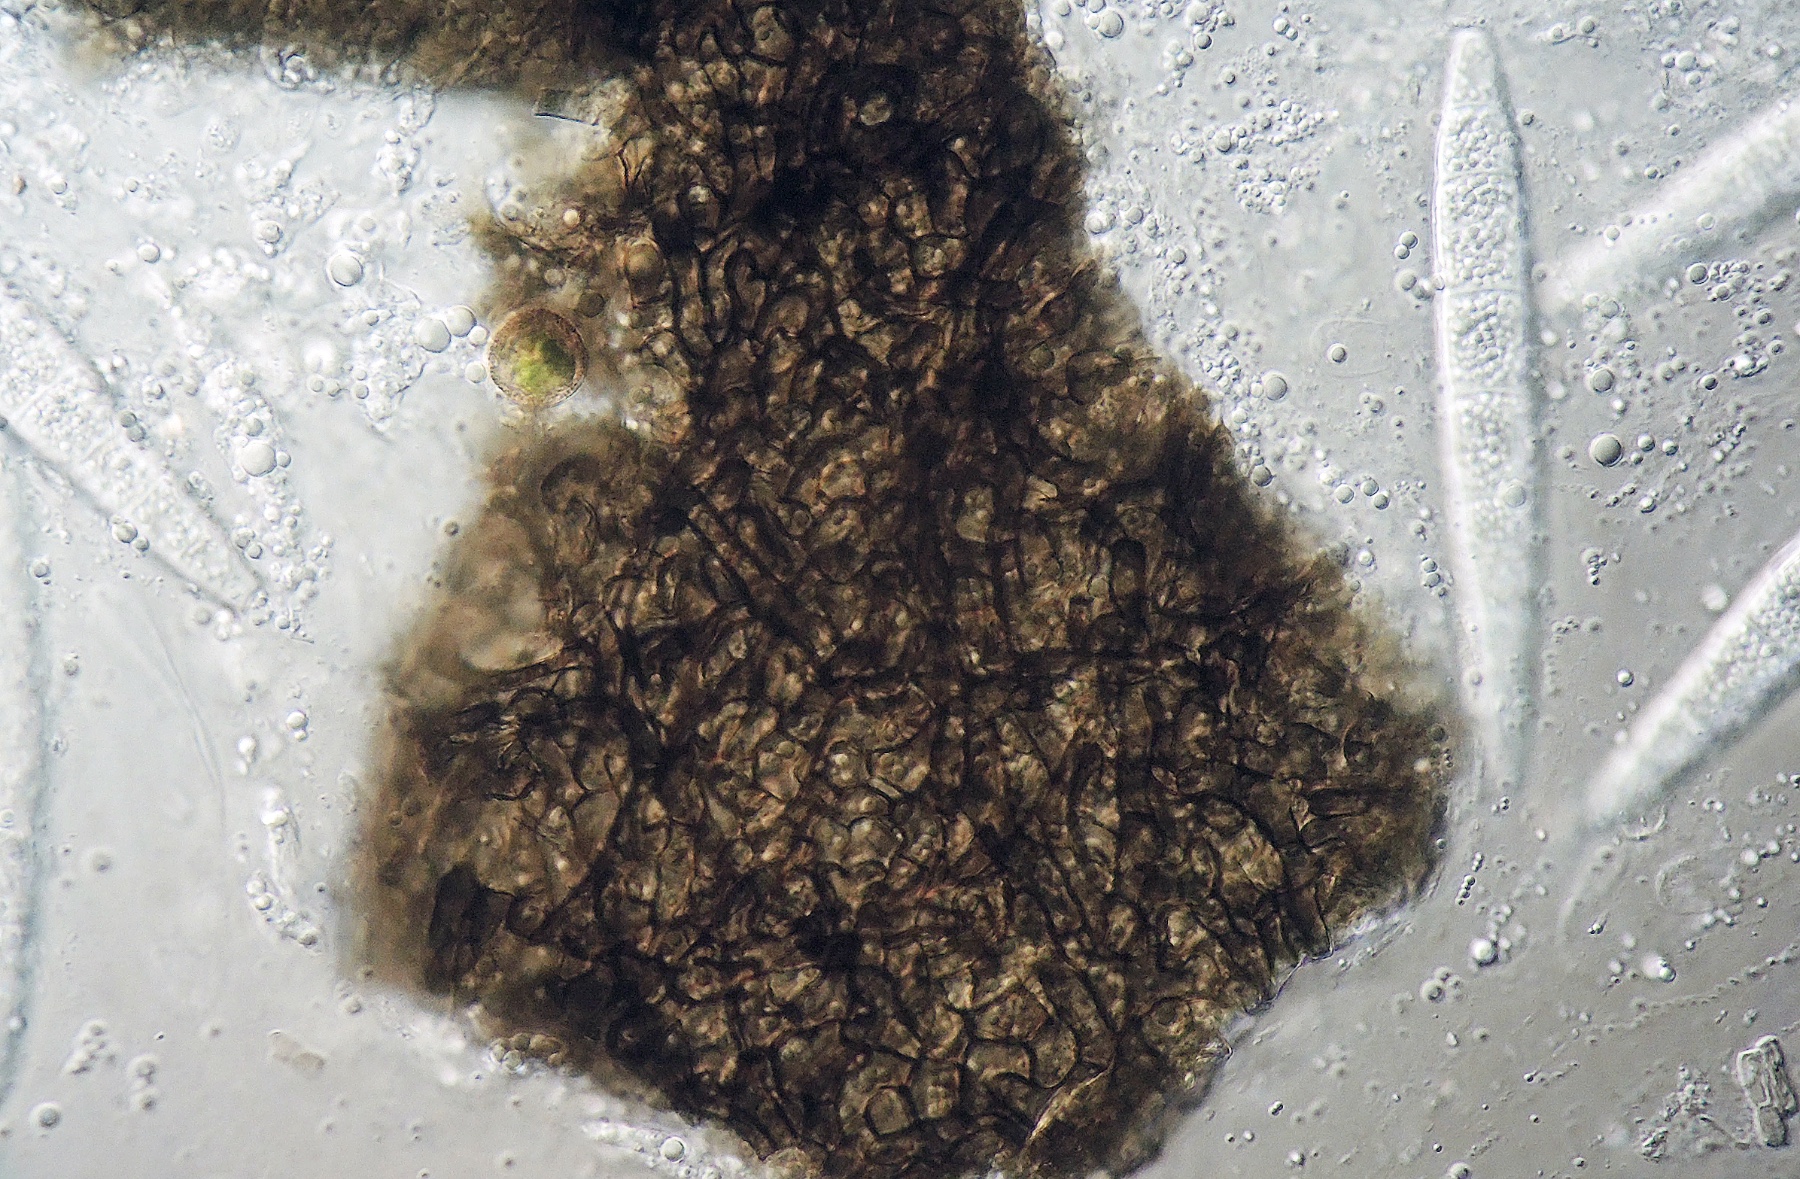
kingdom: Fungi
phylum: Ascomycota
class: Dothideomycetes
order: Pleosporales
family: Phaeosphaeriaceae
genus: Stagonospora
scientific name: Stagonospora anglica
